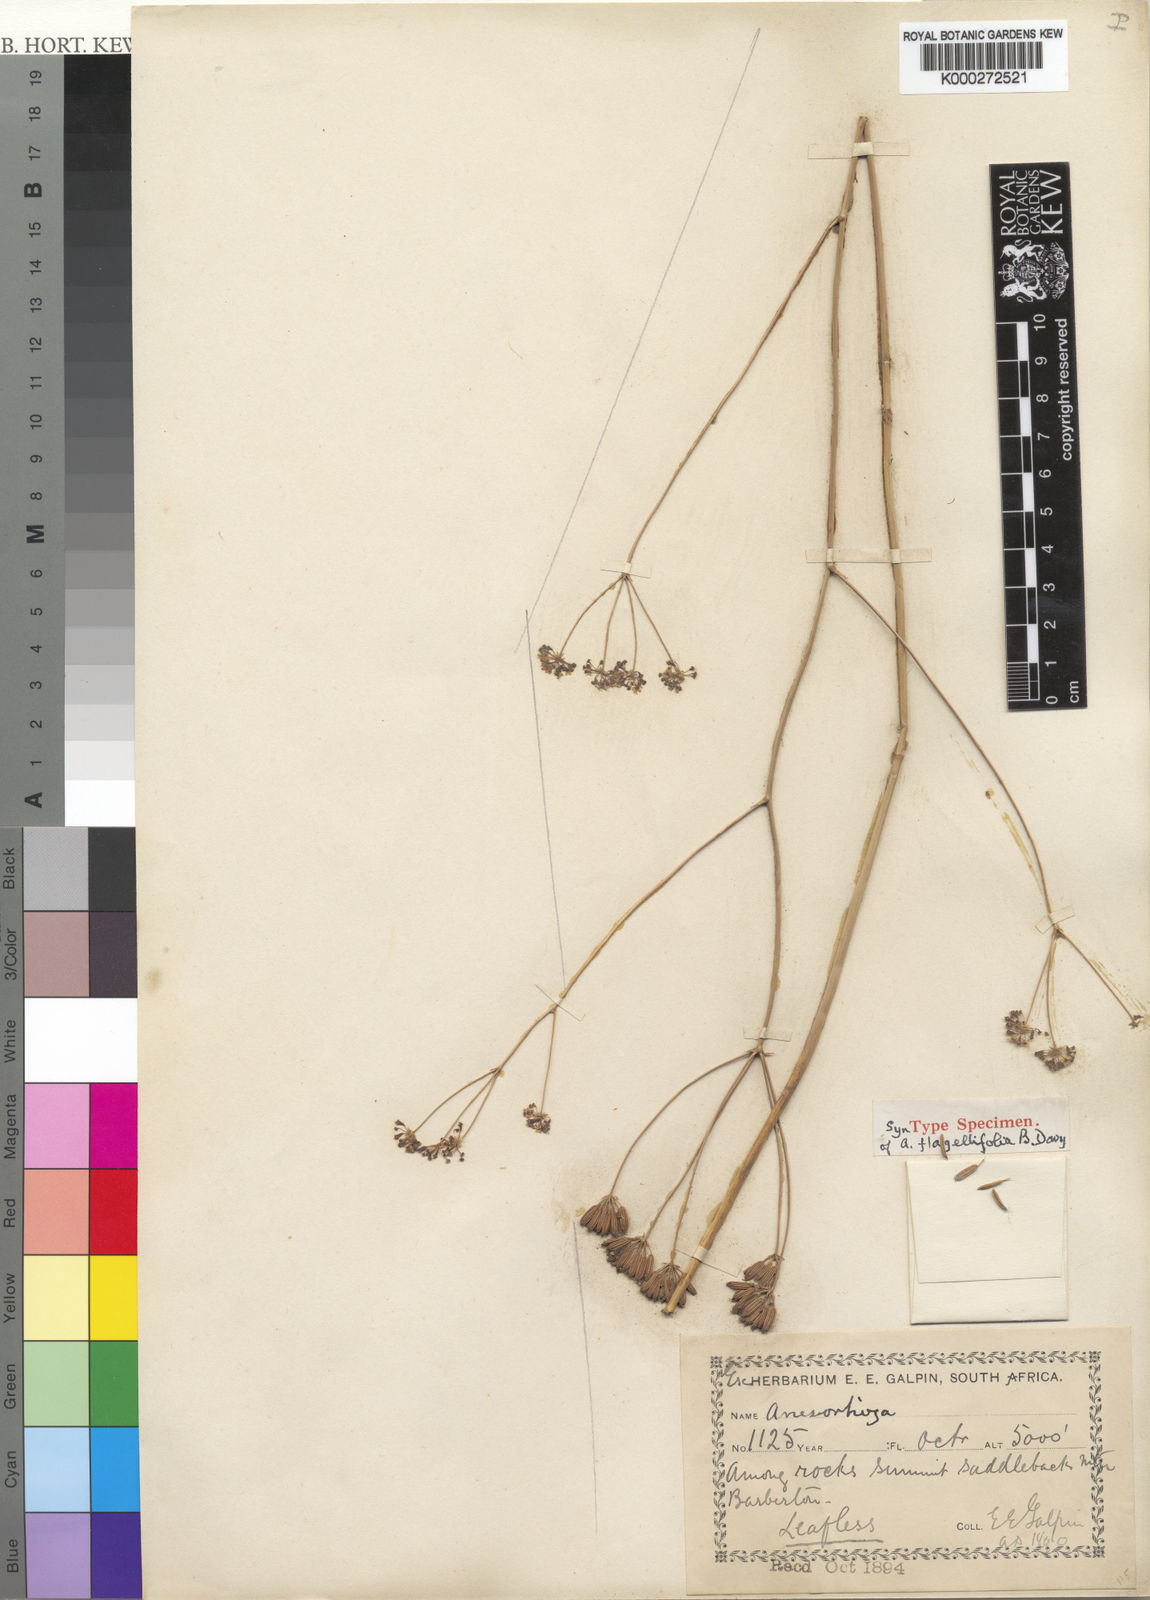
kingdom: Plantae
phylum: Tracheophyta
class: Magnoliopsida
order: Apiales
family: Apiaceae
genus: Annesorhiza
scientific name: Annesorhiza flagellifolia
